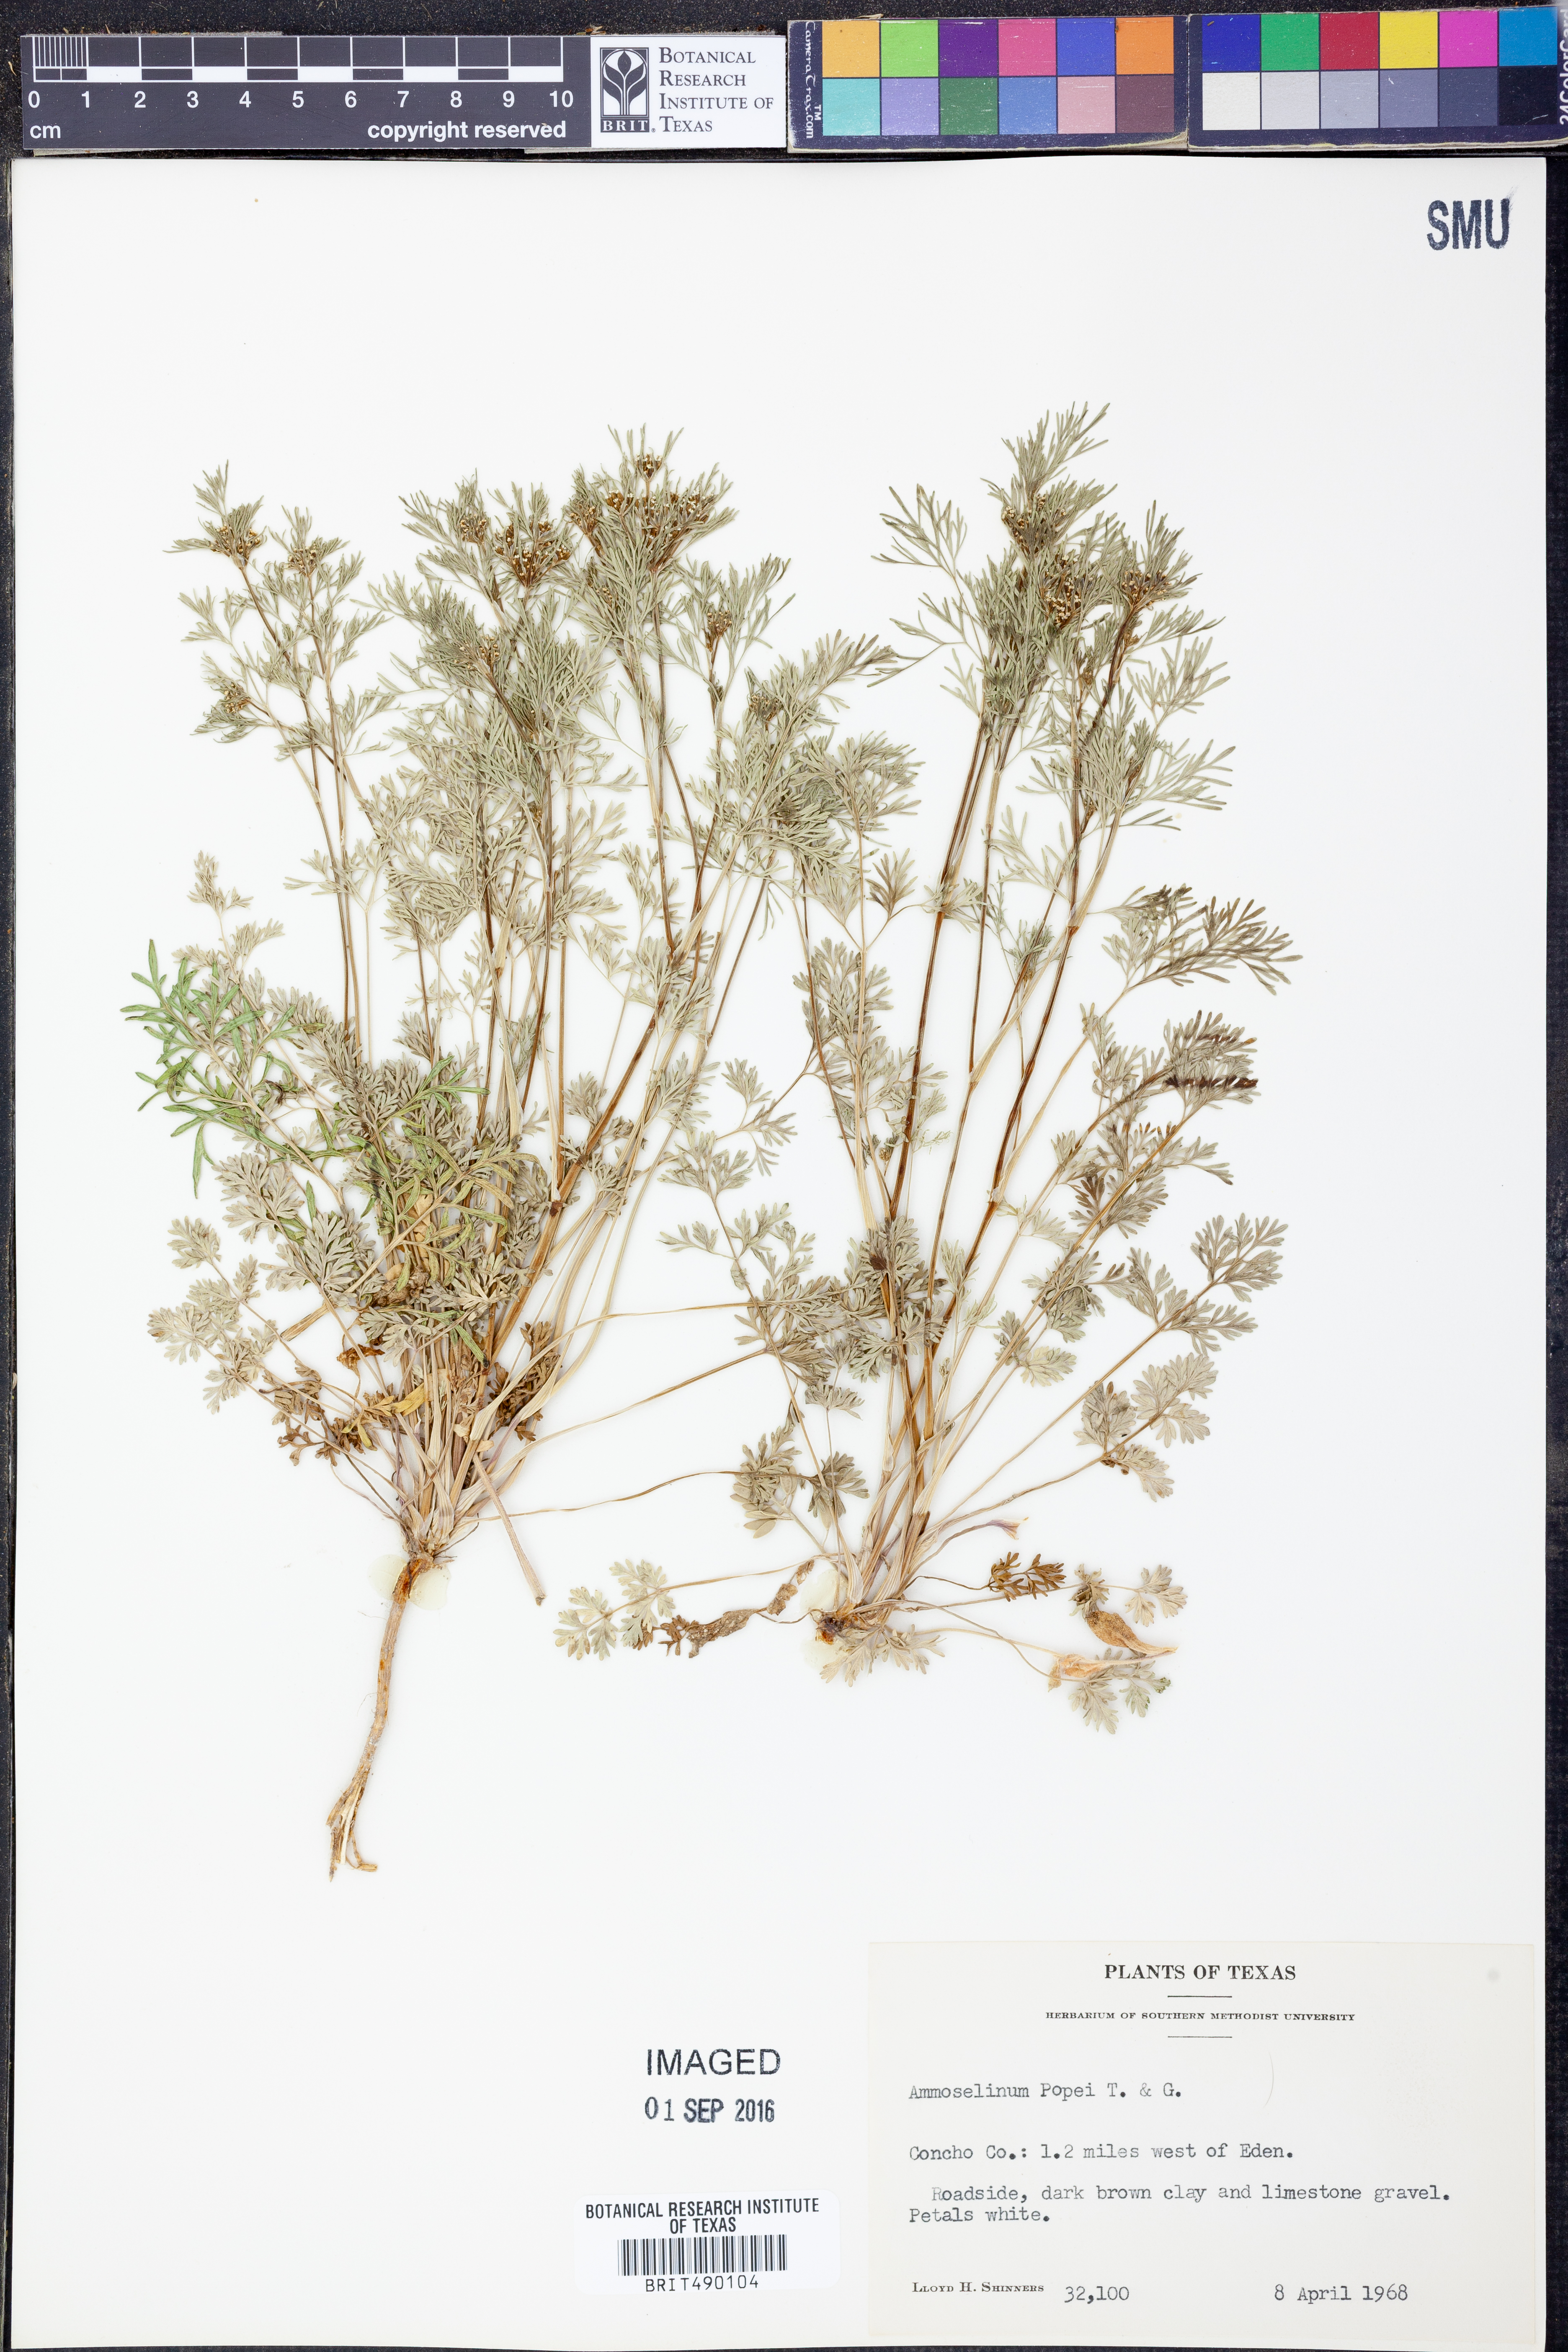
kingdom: Plantae
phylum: Tracheophyta
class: Magnoliopsida
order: Apiales
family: Apiaceae
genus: Ammoselinum
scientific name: Ammoselinum popei
